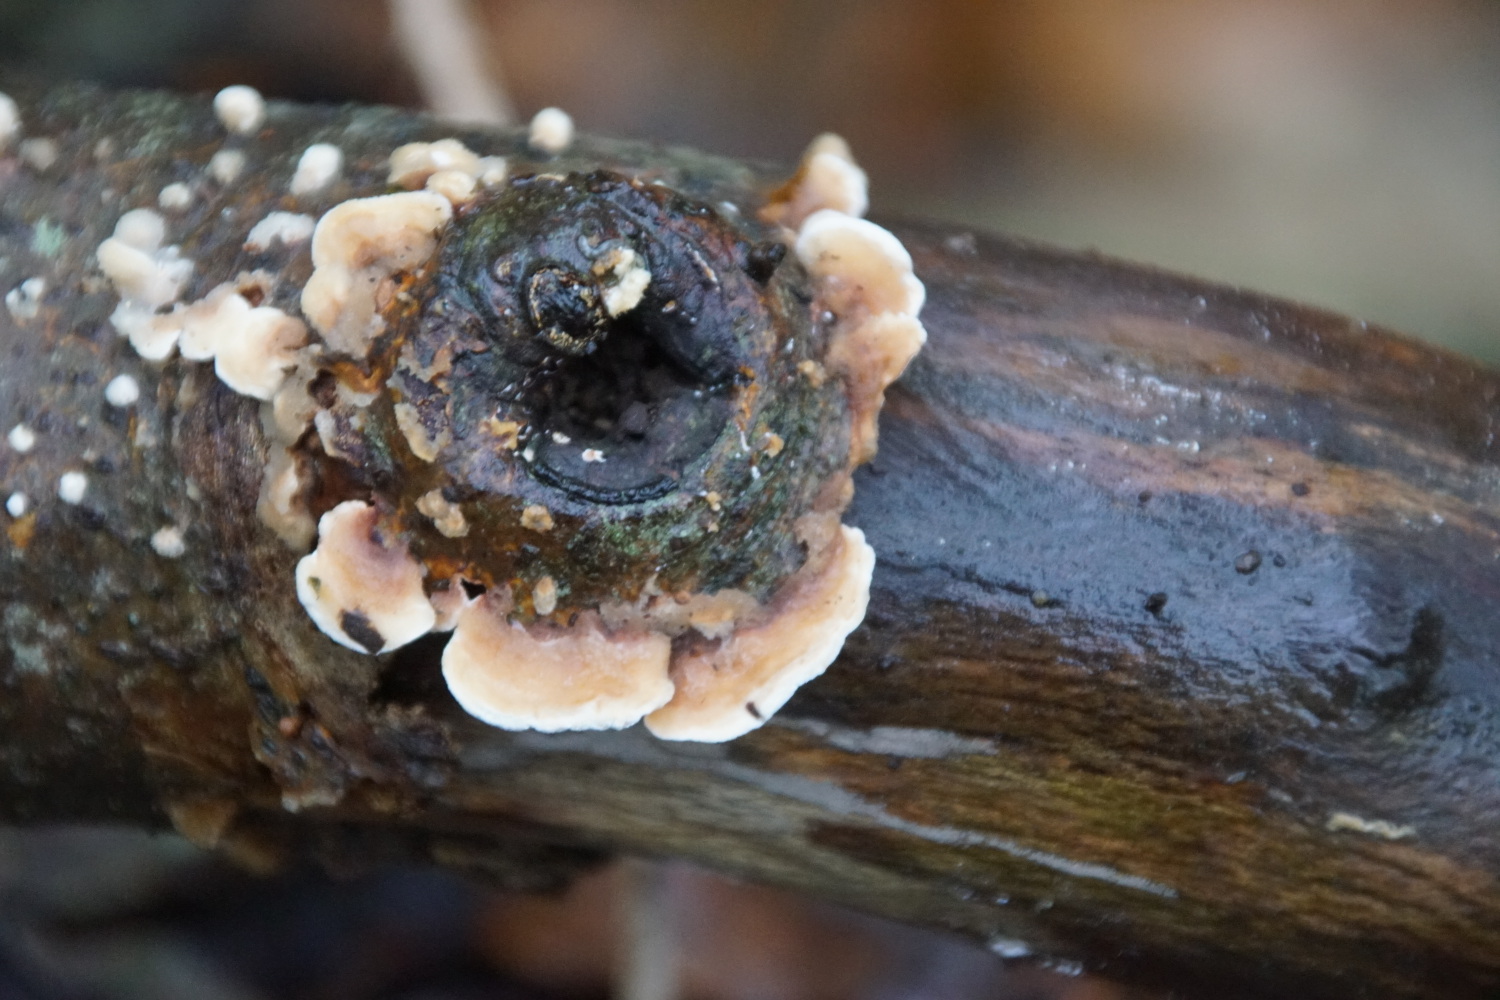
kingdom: Fungi
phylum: Basidiomycota
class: Agaricomycetes
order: Polyporales
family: Steccherinaceae
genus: Steccherinum
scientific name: Steccherinum ochraceum
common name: almindelig skønpig
